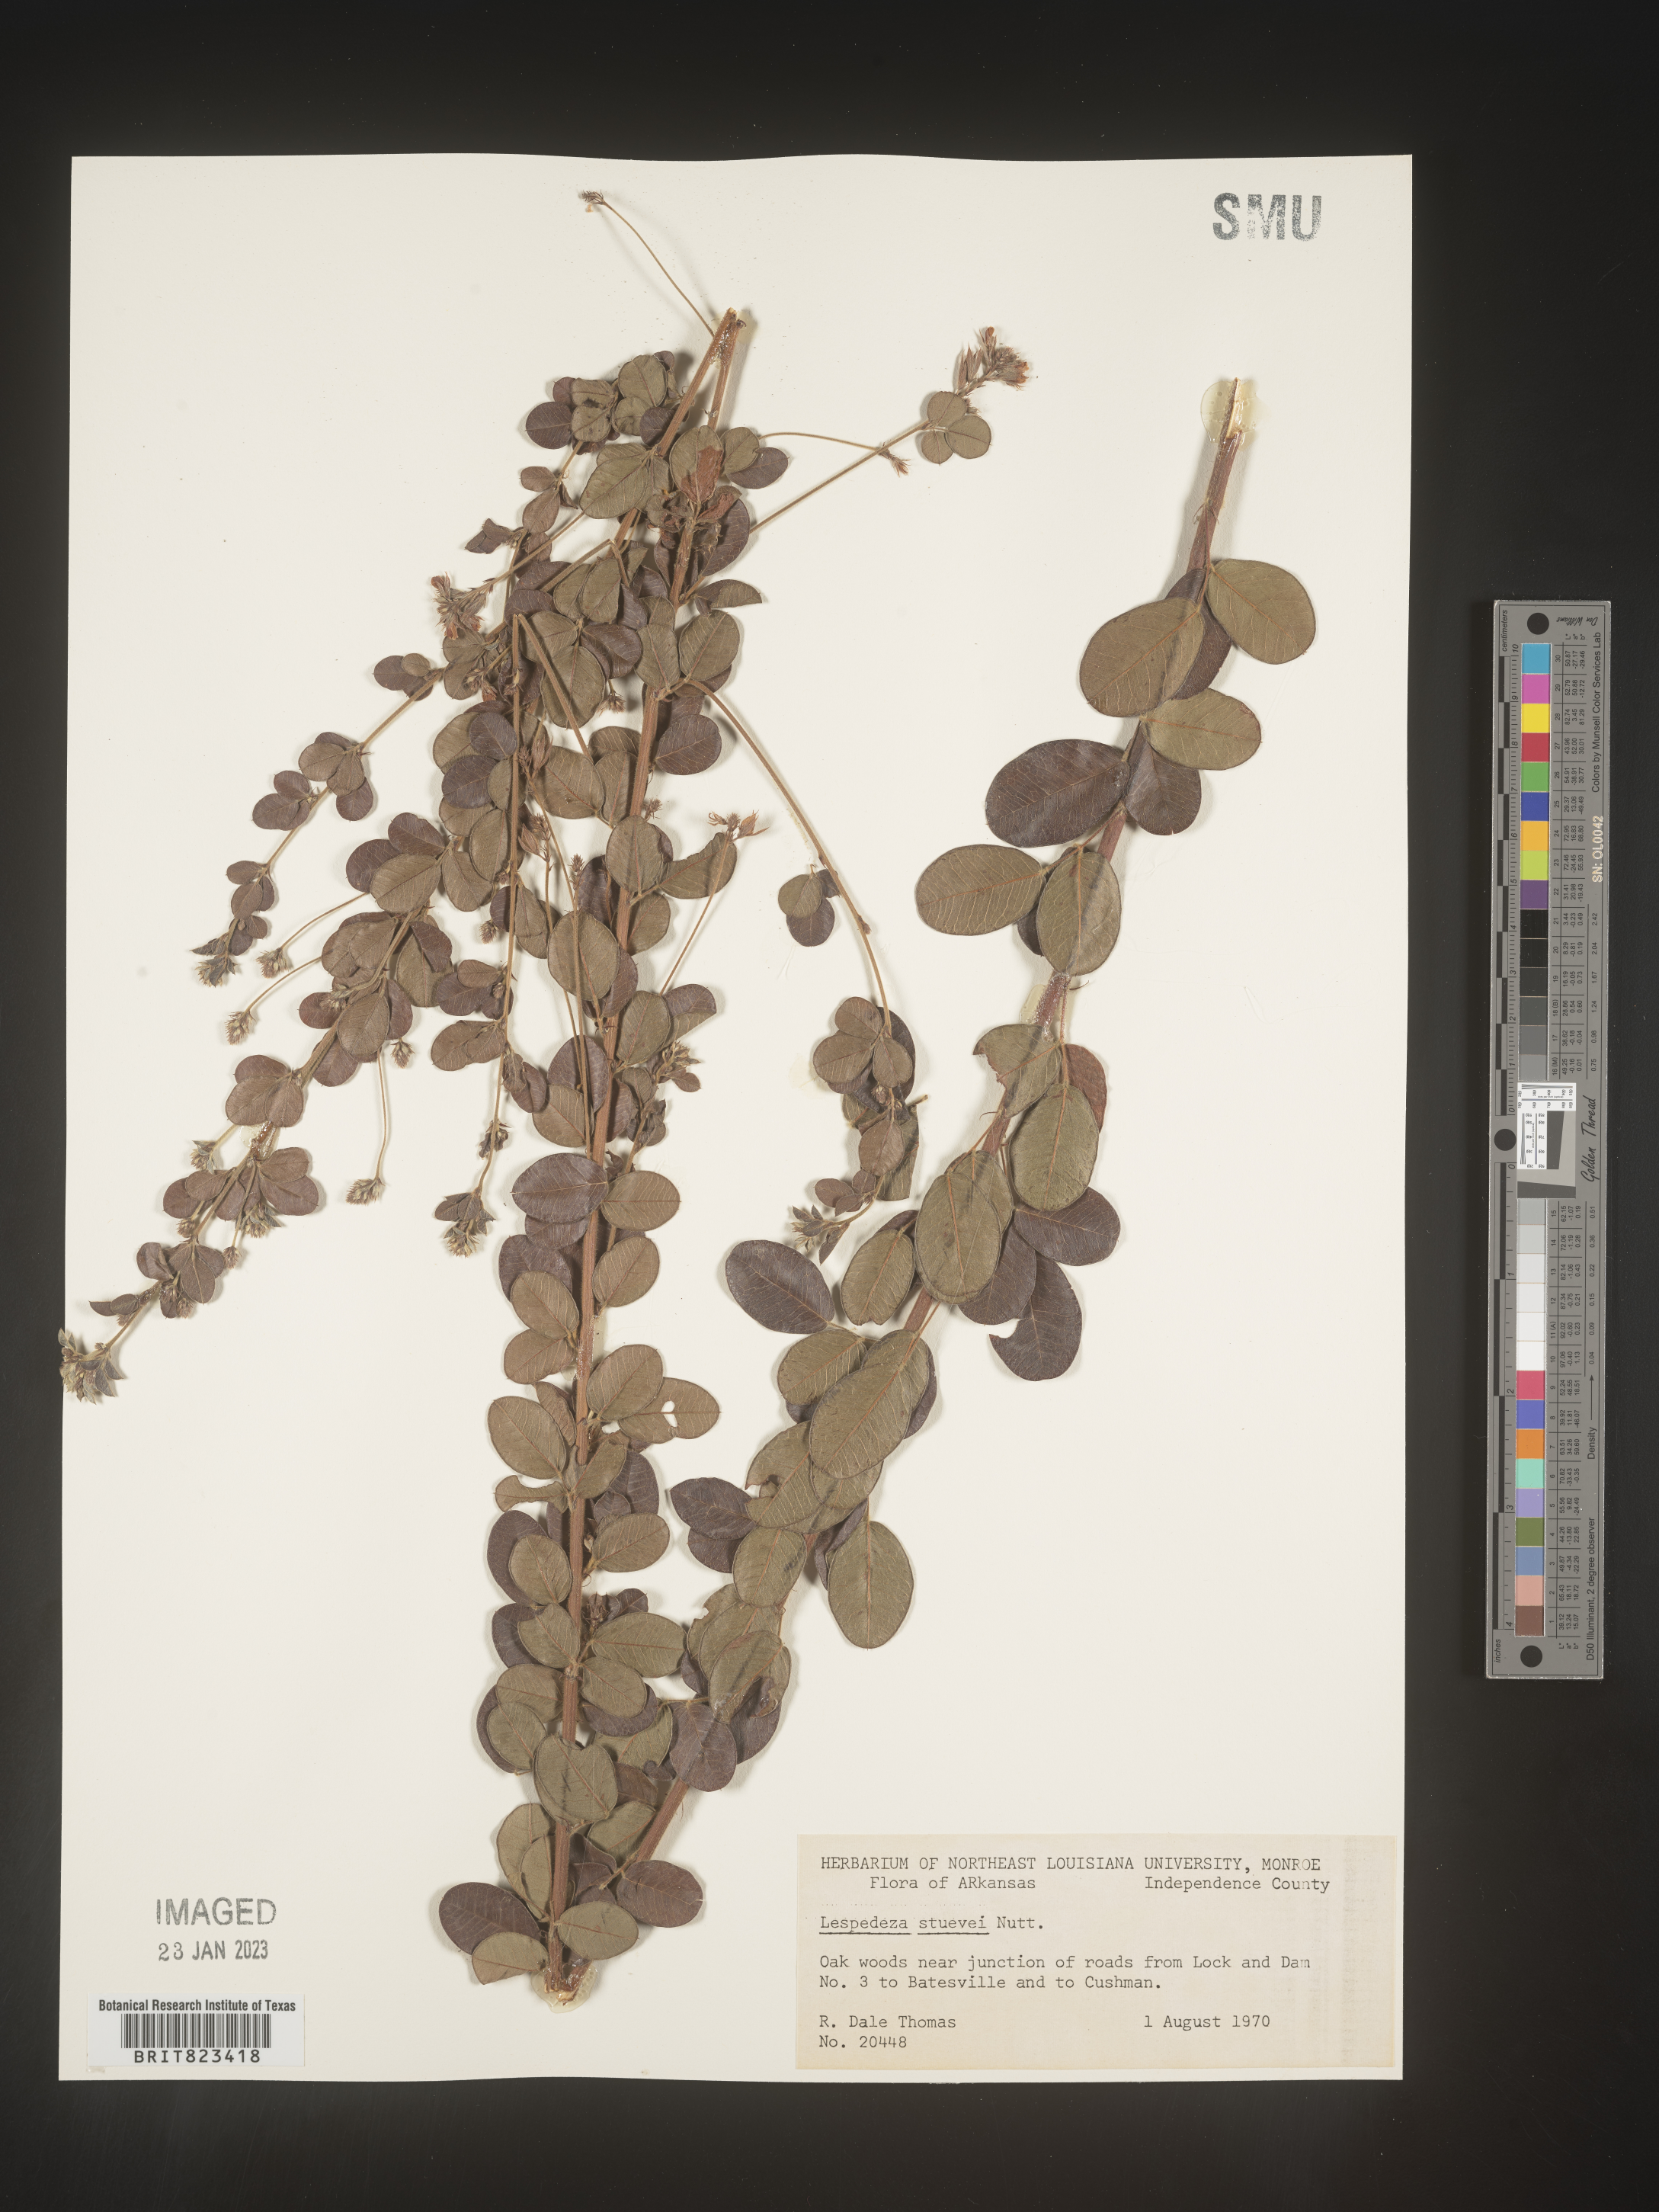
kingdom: Plantae
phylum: Tracheophyta
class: Magnoliopsida
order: Fabales
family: Fabaceae
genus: Lespedeza
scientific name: Lespedeza stuevei
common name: Tall bush-clover
